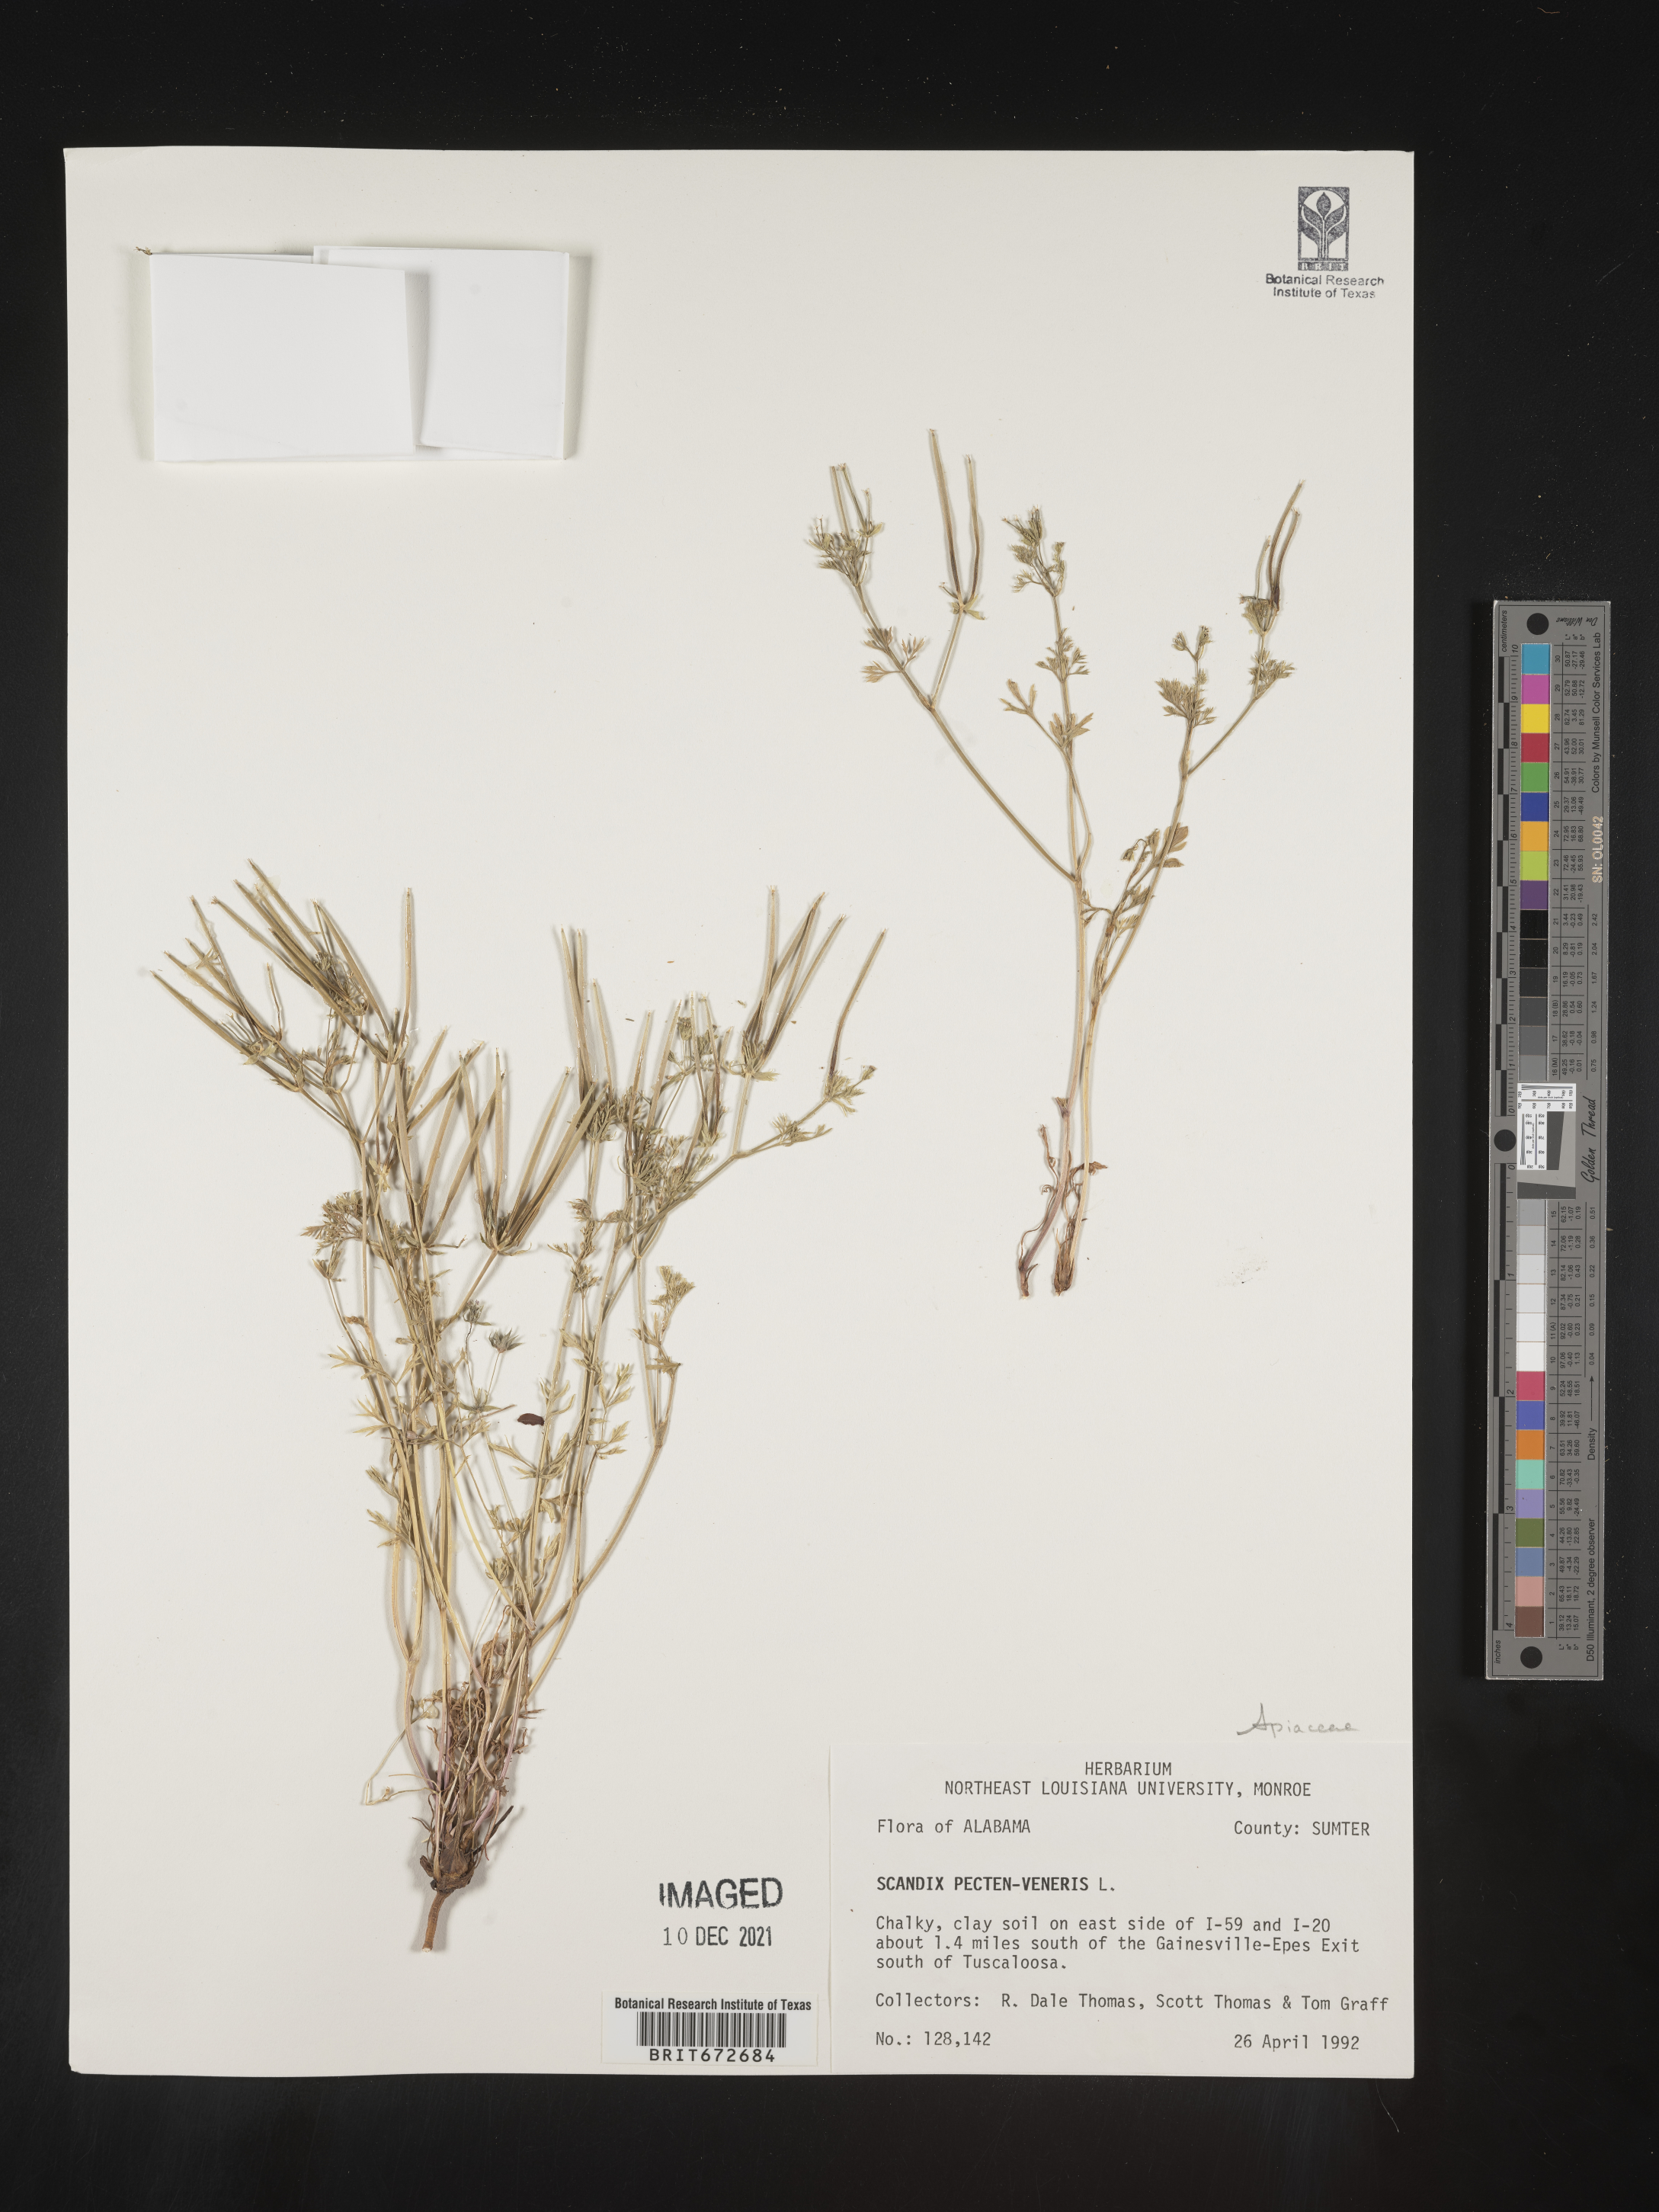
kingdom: Plantae
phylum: Tracheophyta
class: Magnoliopsida
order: Apiales
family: Apiaceae
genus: Scandix
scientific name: Scandix
